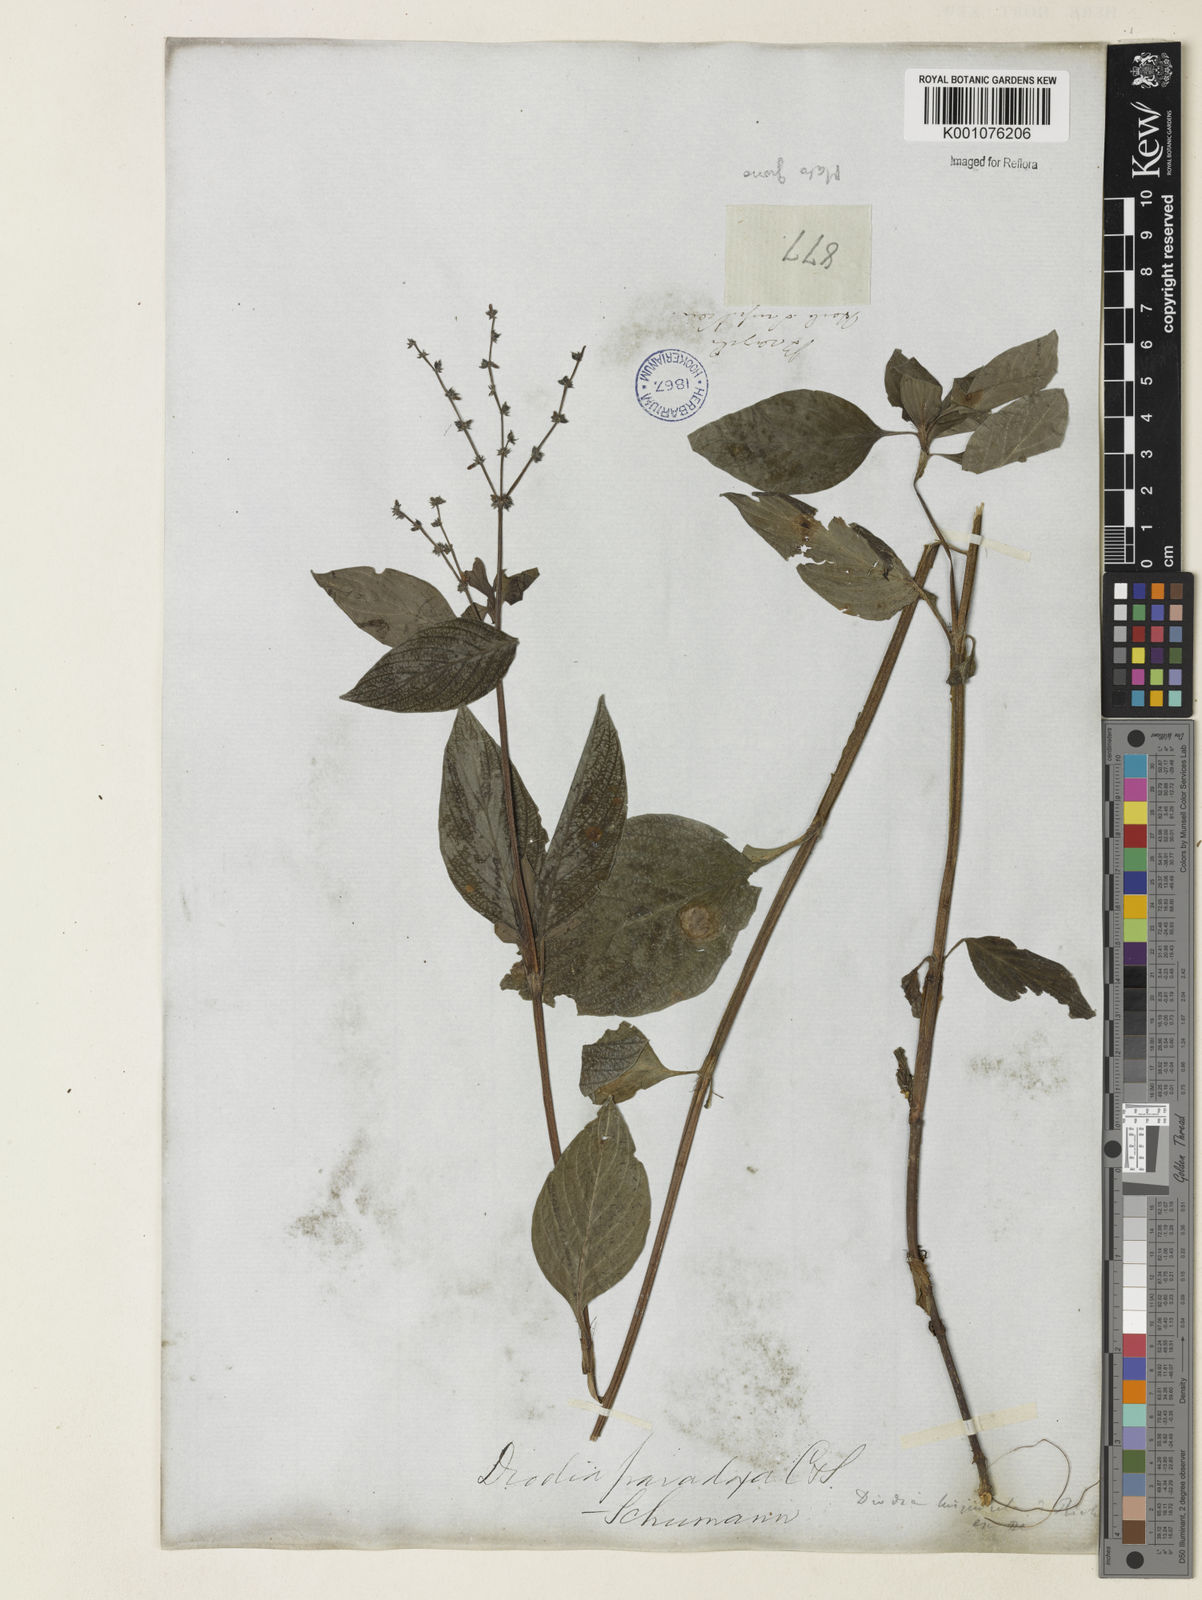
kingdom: Plantae
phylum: Tracheophyta
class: Magnoliopsida
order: Gentianales
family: Rubiaceae
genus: Spermacoce
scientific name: Spermacoce
